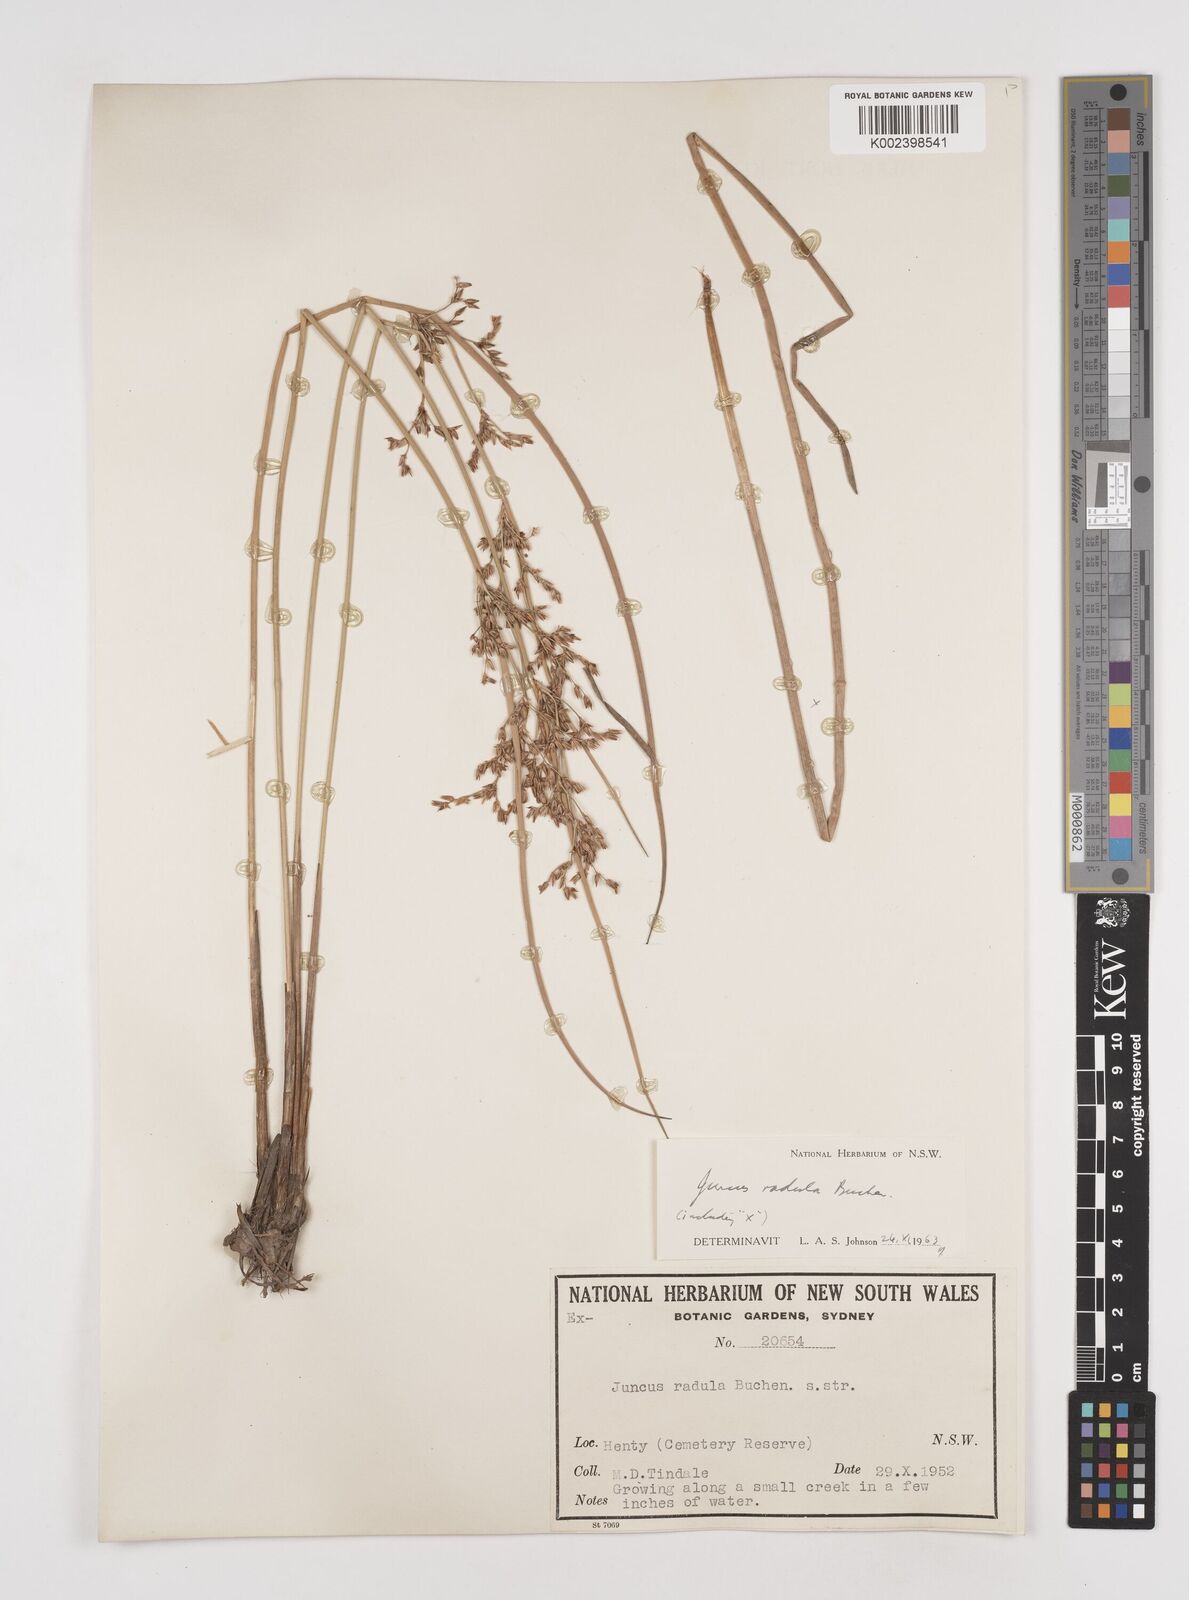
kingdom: Plantae
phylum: Tracheophyta
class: Liliopsida
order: Poales
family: Juncaceae
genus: Juncus
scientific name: Juncus radula
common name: Hoary rush
